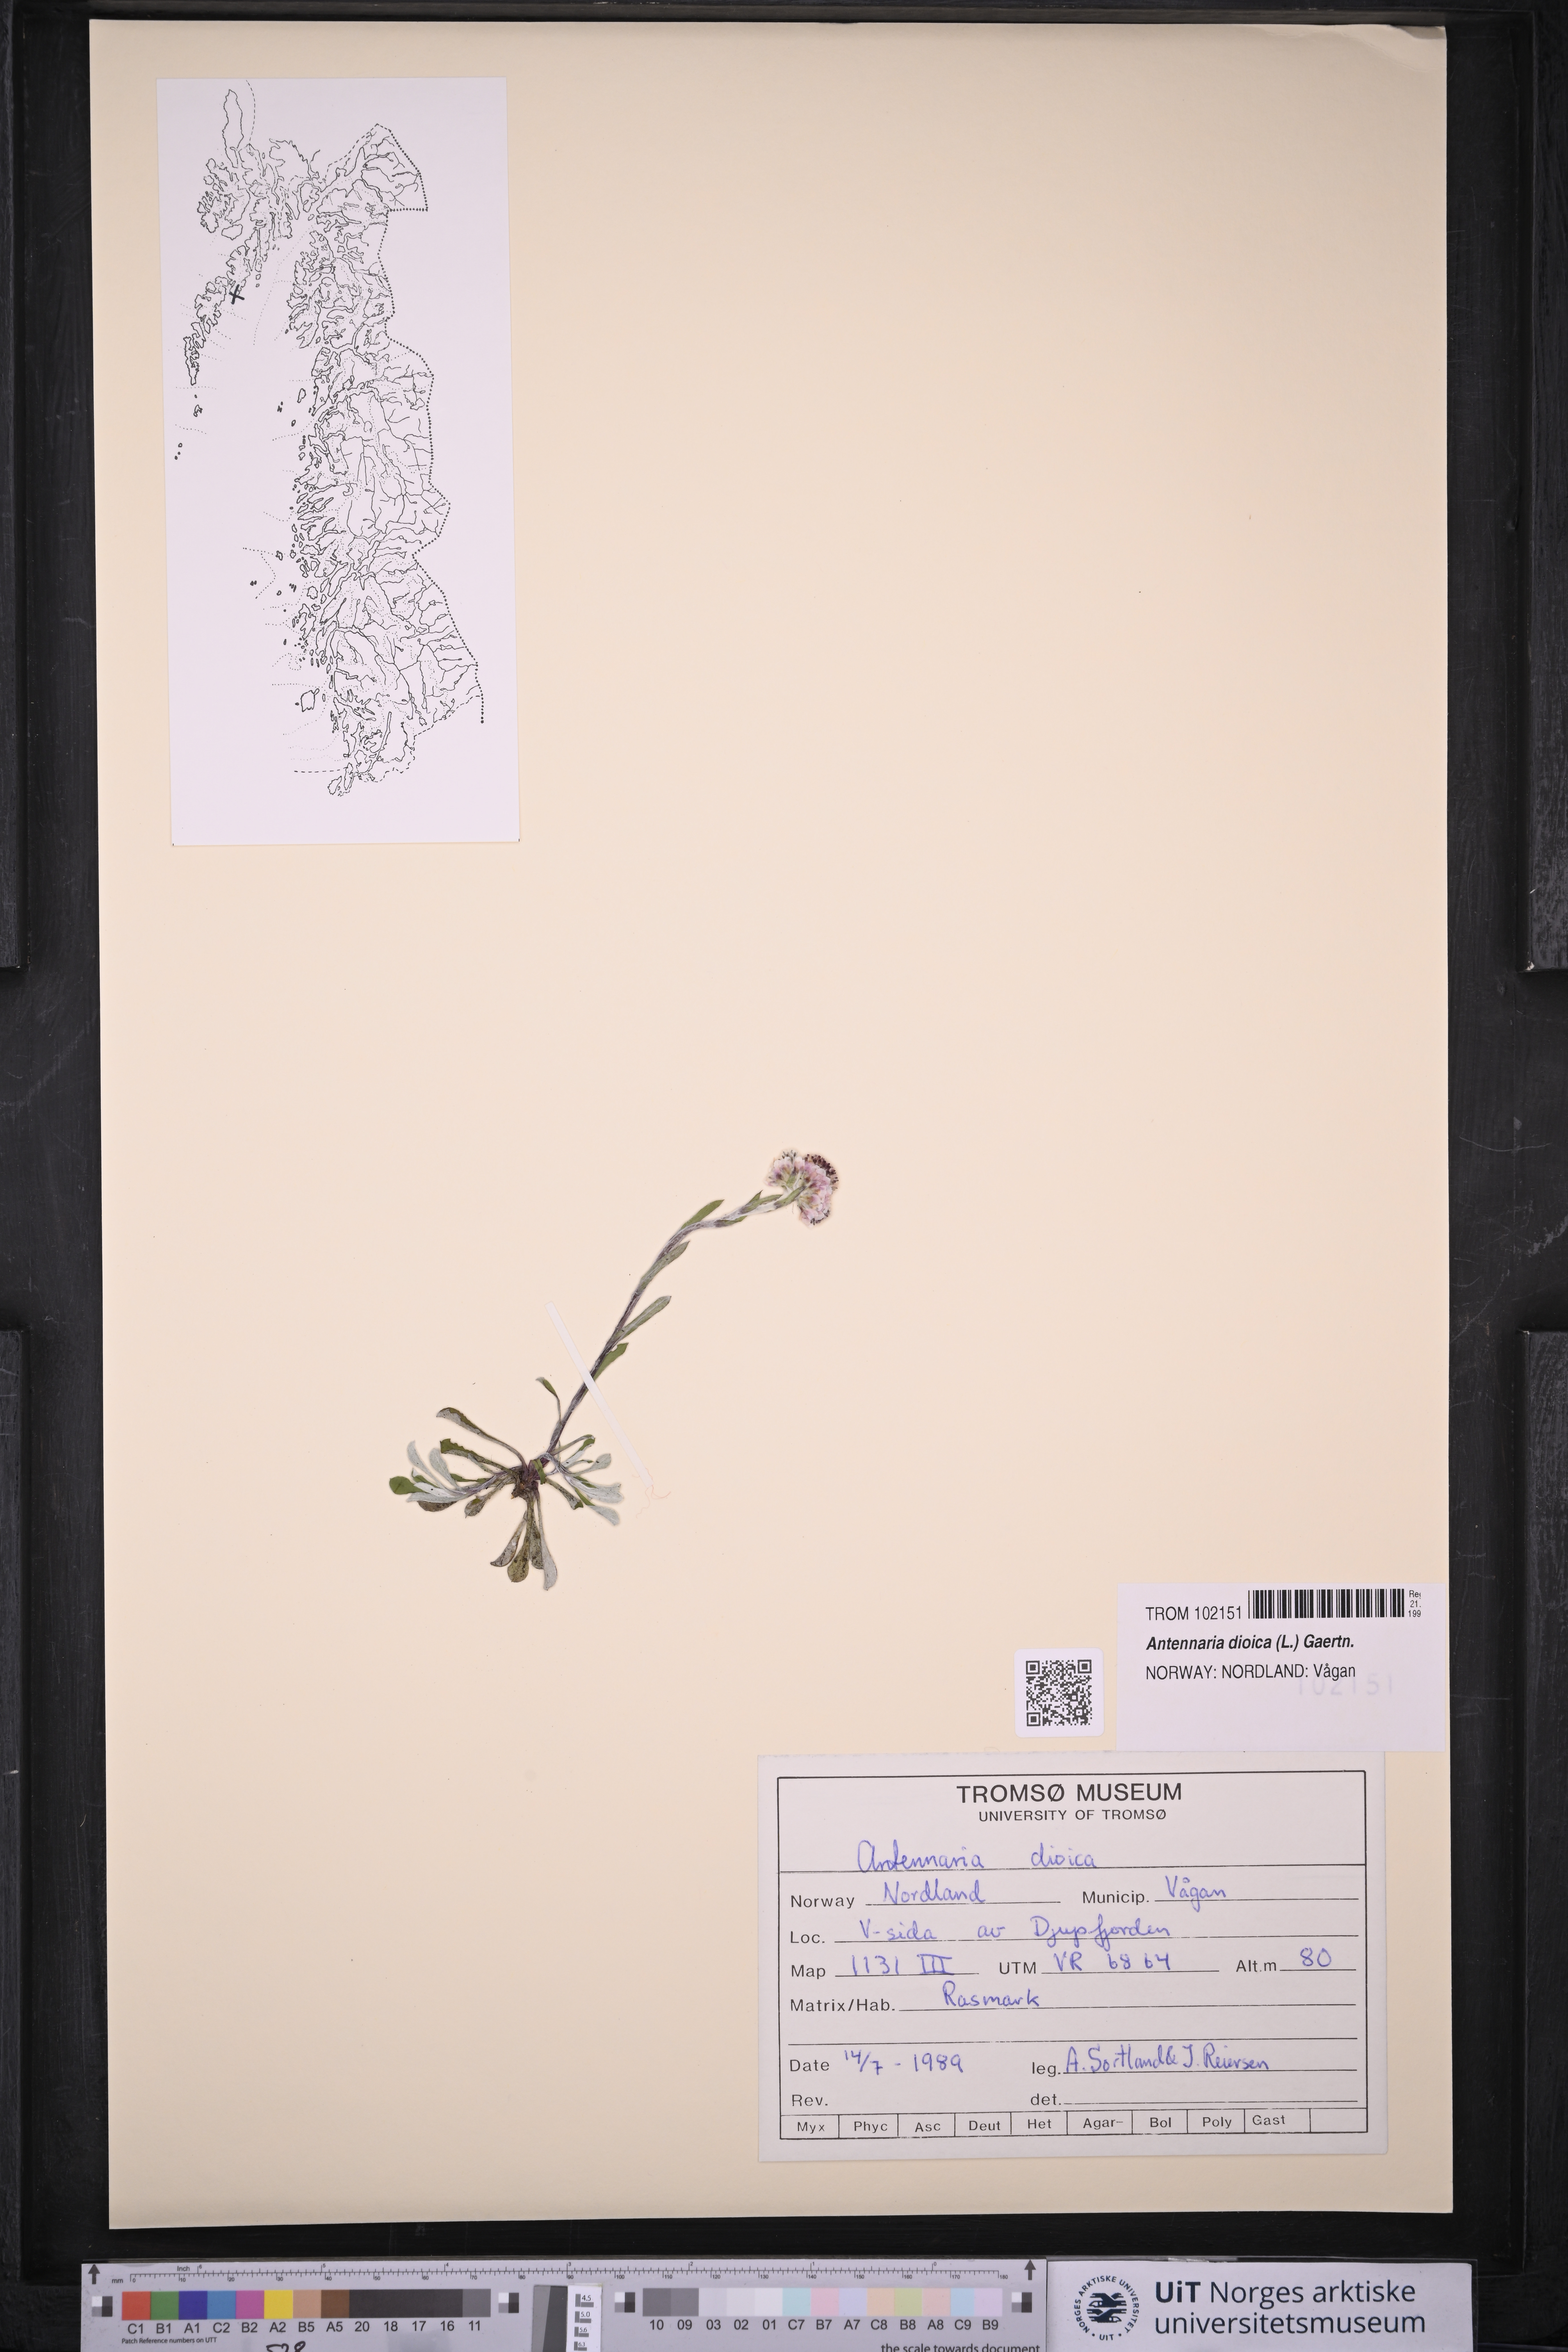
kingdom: Plantae
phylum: Tracheophyta
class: Magnoliopsida
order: Asterales
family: Asteraceae
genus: Antennaria
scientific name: Antennaria dioica
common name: Mountain everlasting
